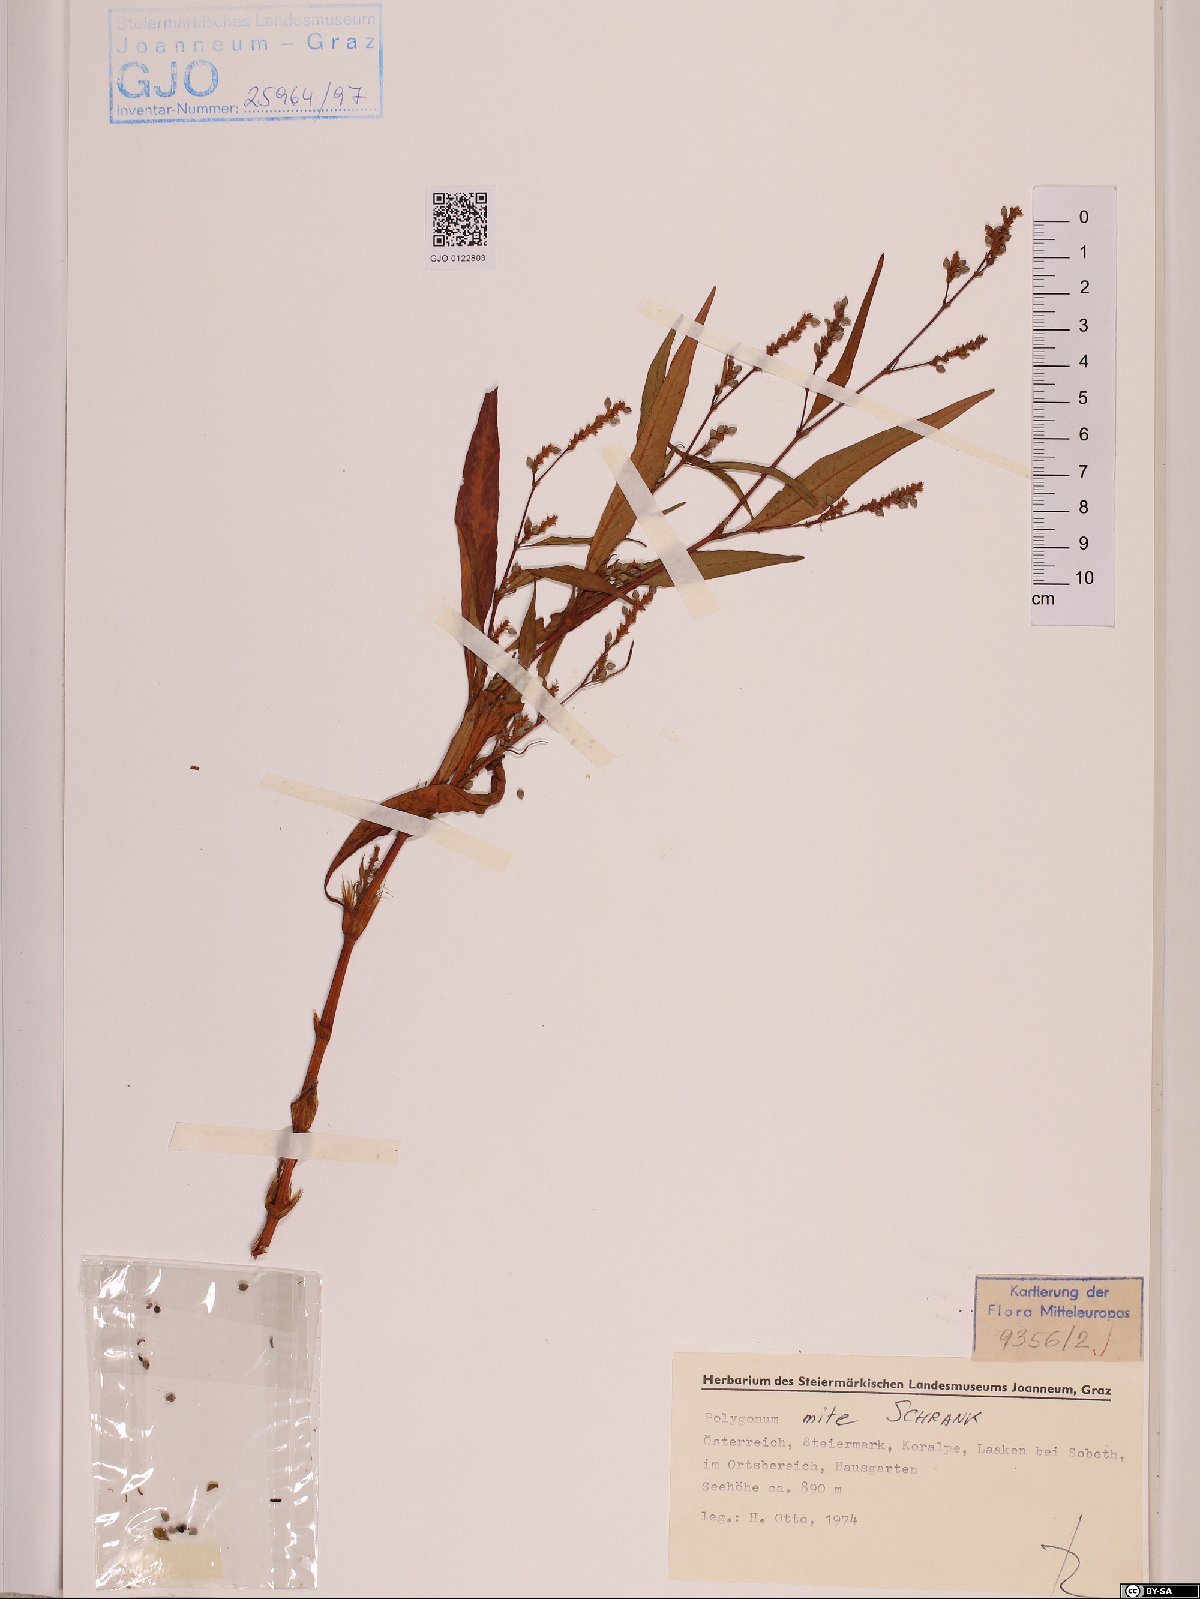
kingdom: Plantae
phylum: Tracheophyta
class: Magnoliopsida
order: Caryophyllales
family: Polygonaceae
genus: Persicaria
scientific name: Persicaria mitis
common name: Tasteless water-pepper
